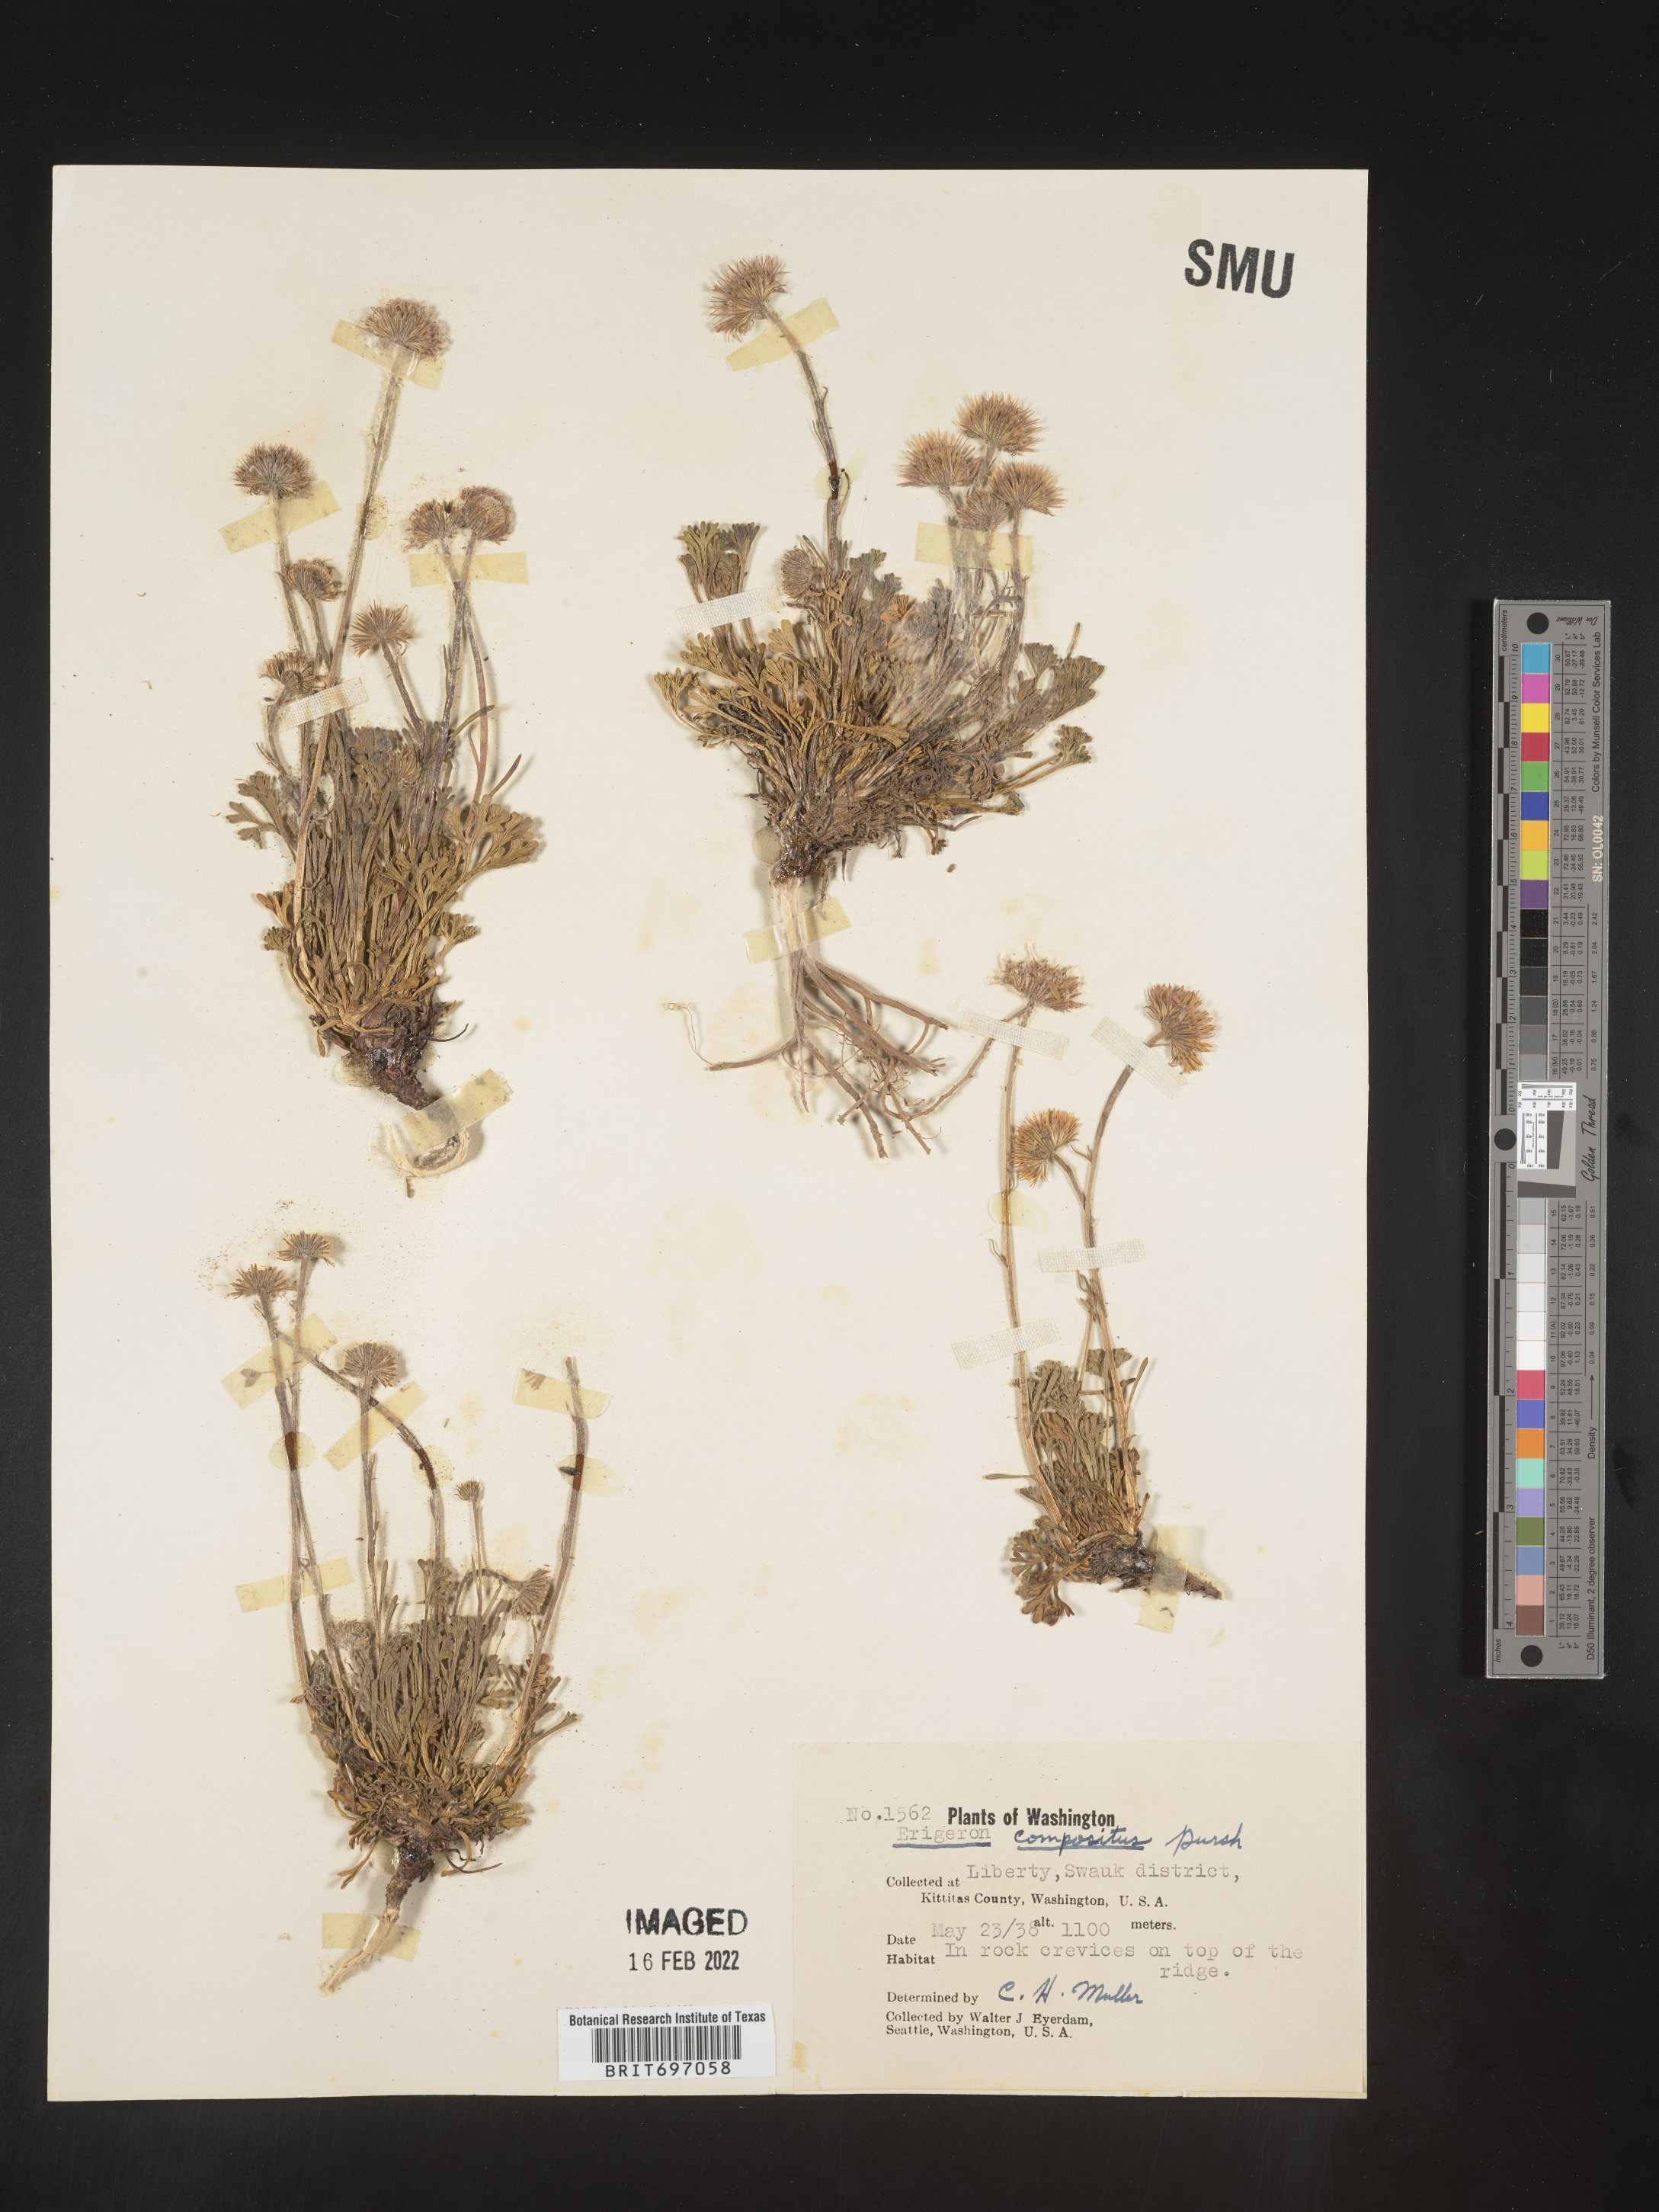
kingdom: Plantae
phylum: Tracheophyta
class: Magnoliopsida
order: Asterales
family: Asteraceae
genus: Erigeron
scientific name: Erigeron compositus
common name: Dwarf mountain fleabane
